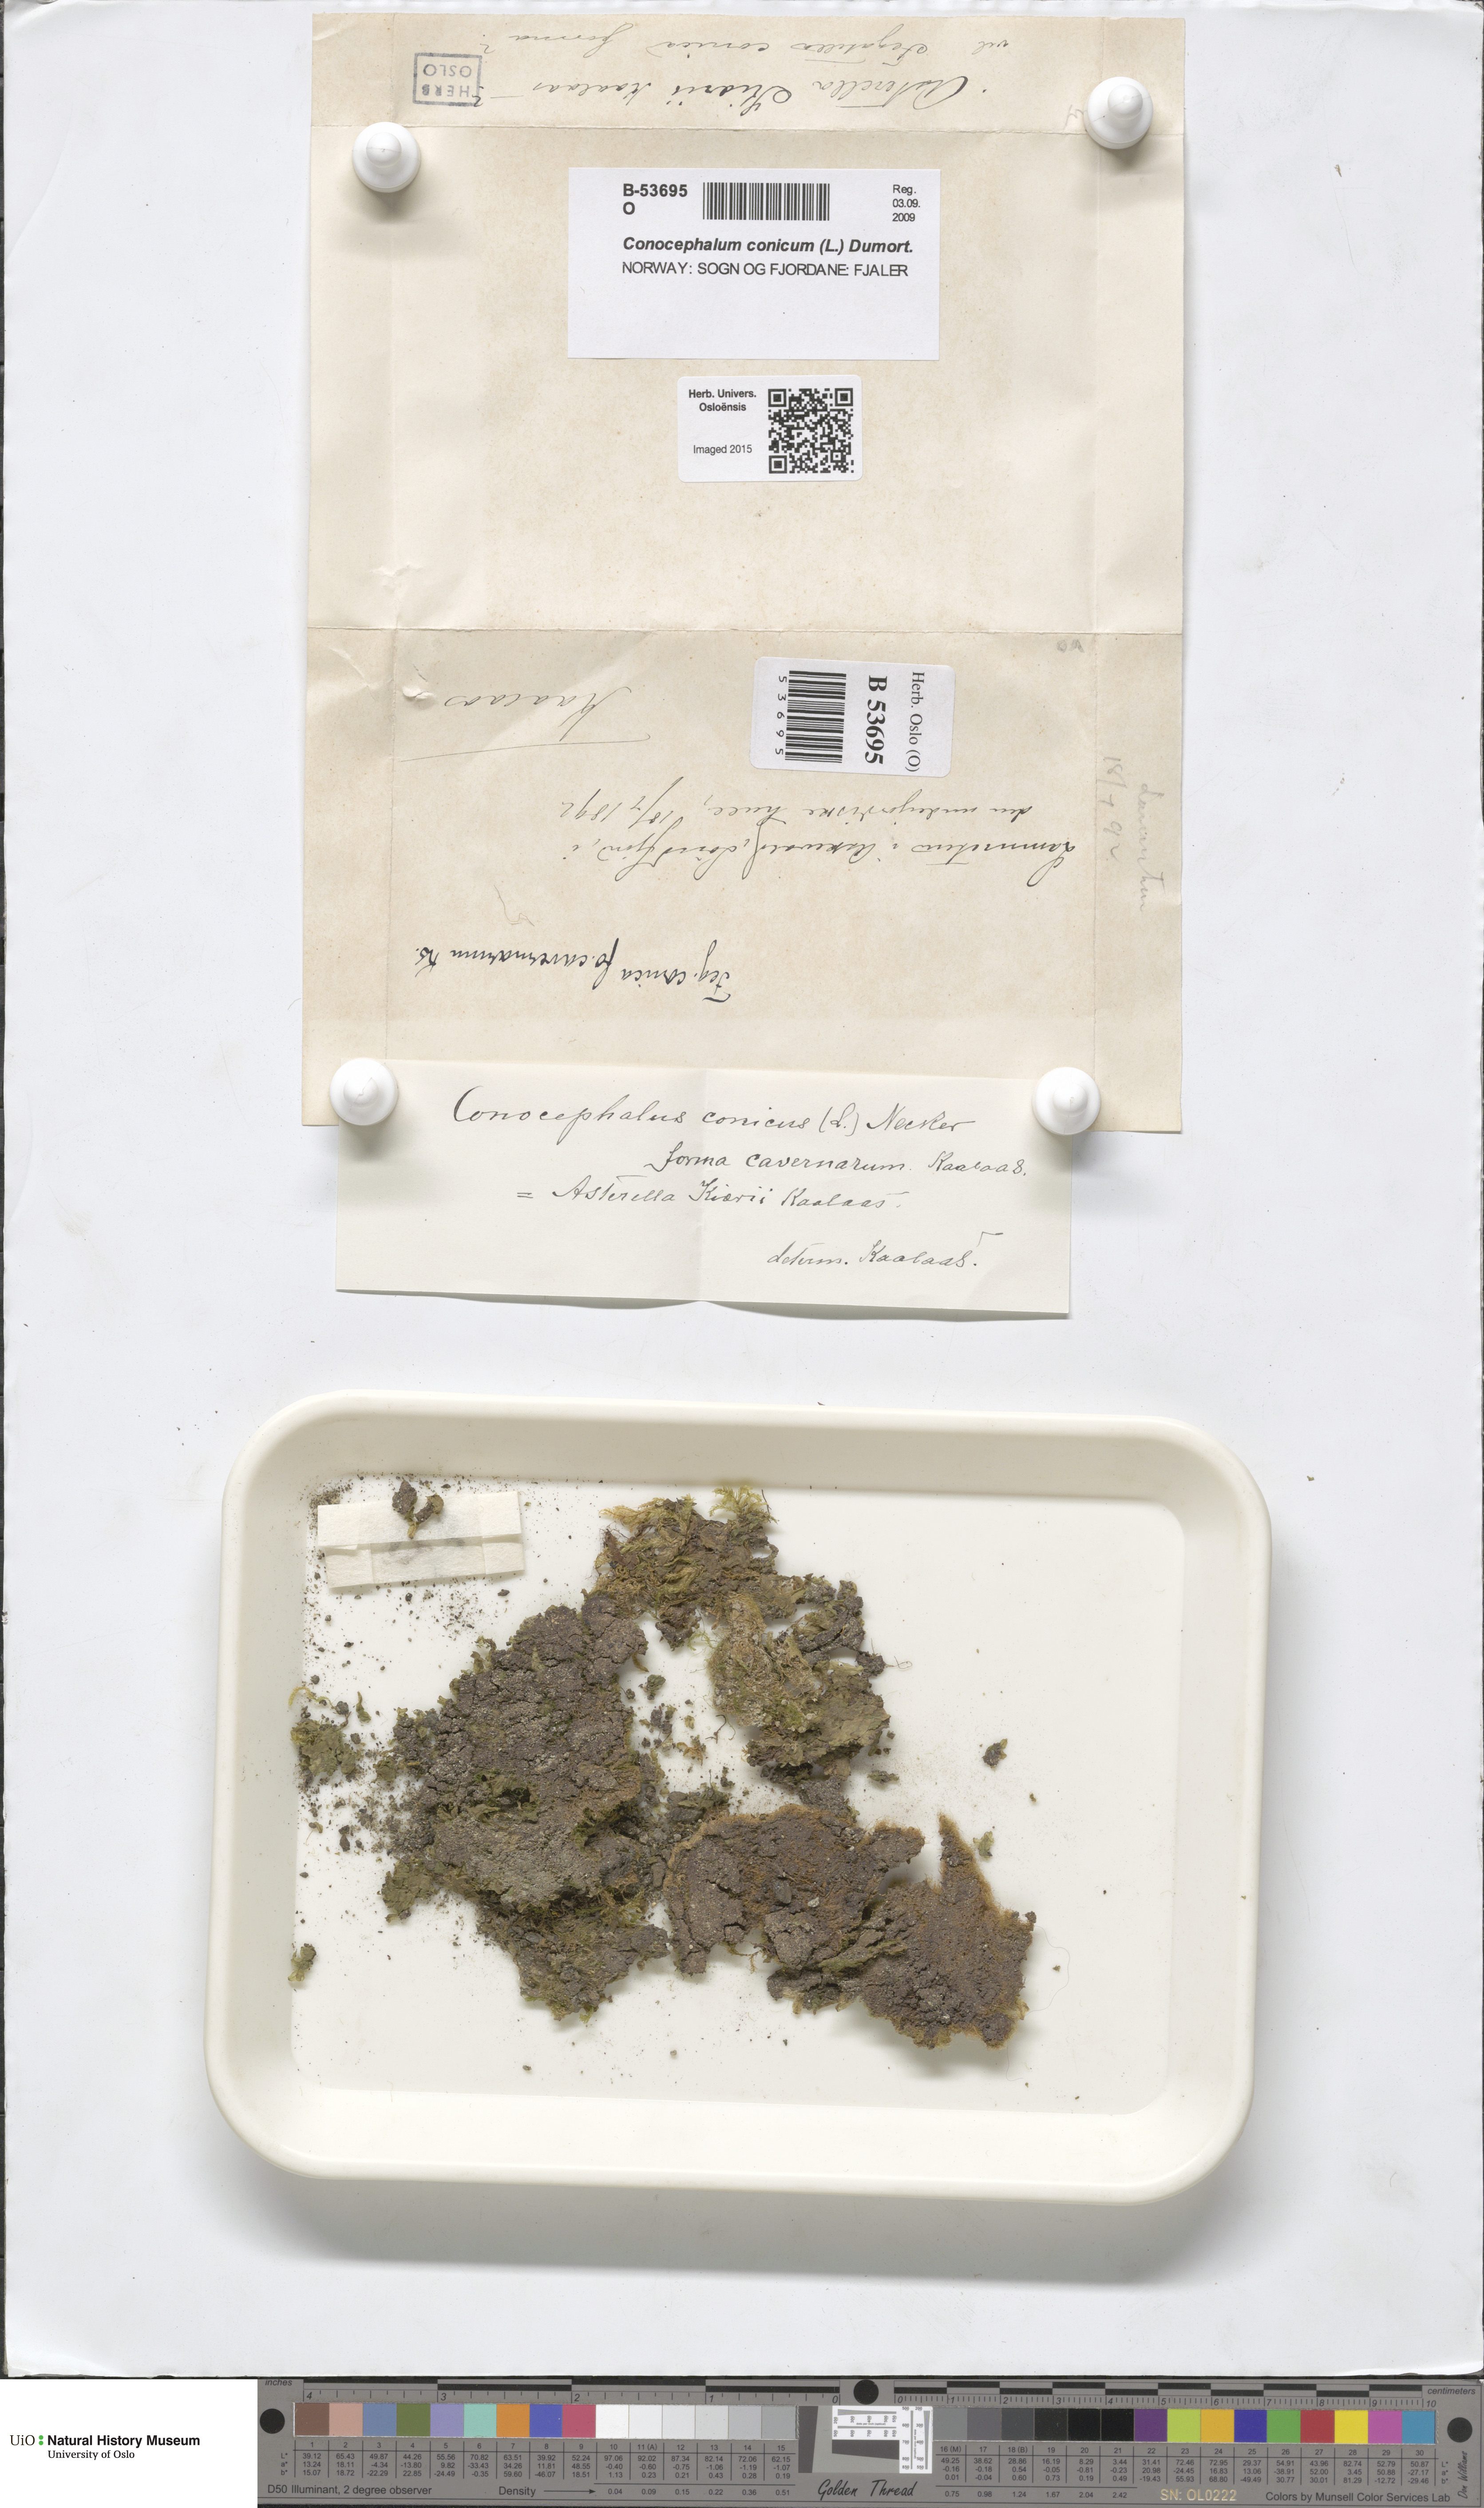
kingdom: Plantae
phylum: Marchantiophyta
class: Marchantiopsida
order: Marchantiales
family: Conocephalaceae
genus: Conocephalum
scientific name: Conocephalum conicum
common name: Great scented liverwort
